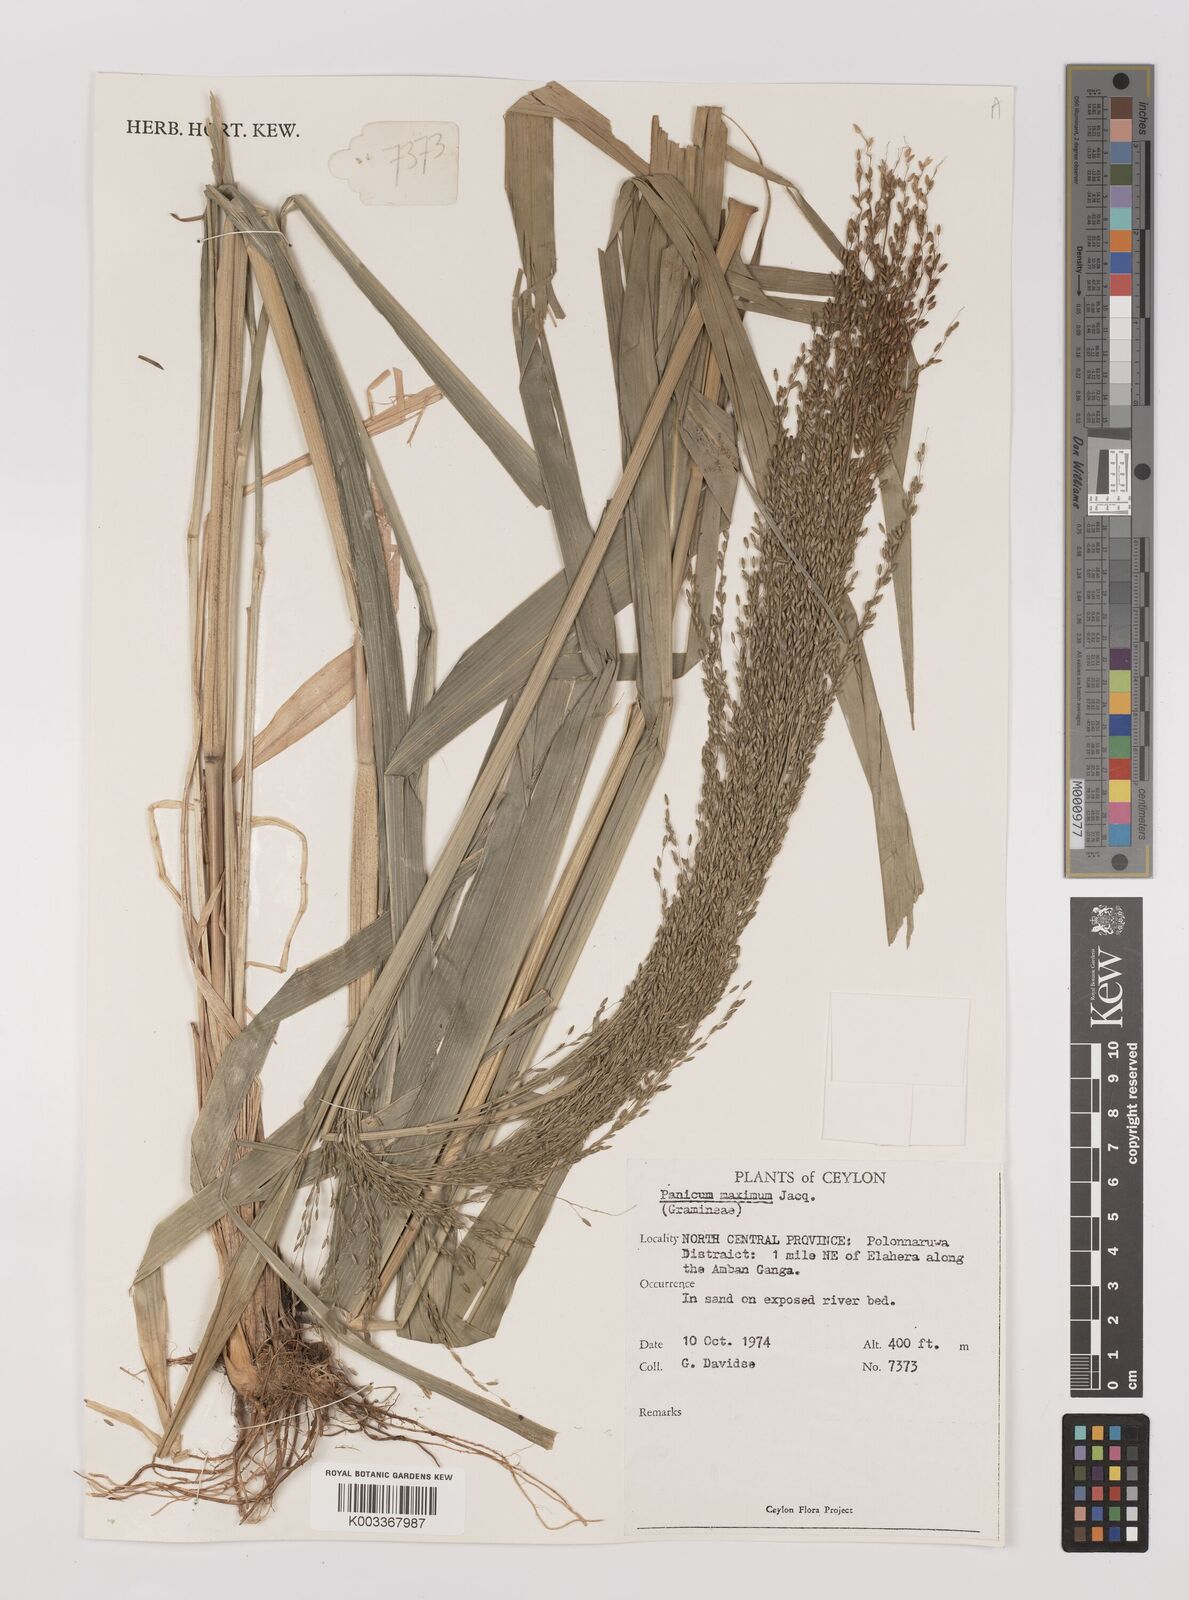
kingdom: Plantae
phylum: Tracheophyta
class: Liliopsida
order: Poales
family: Poaceae
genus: Megathyrsus
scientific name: Megathyrsus maximus
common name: Guineagrass
